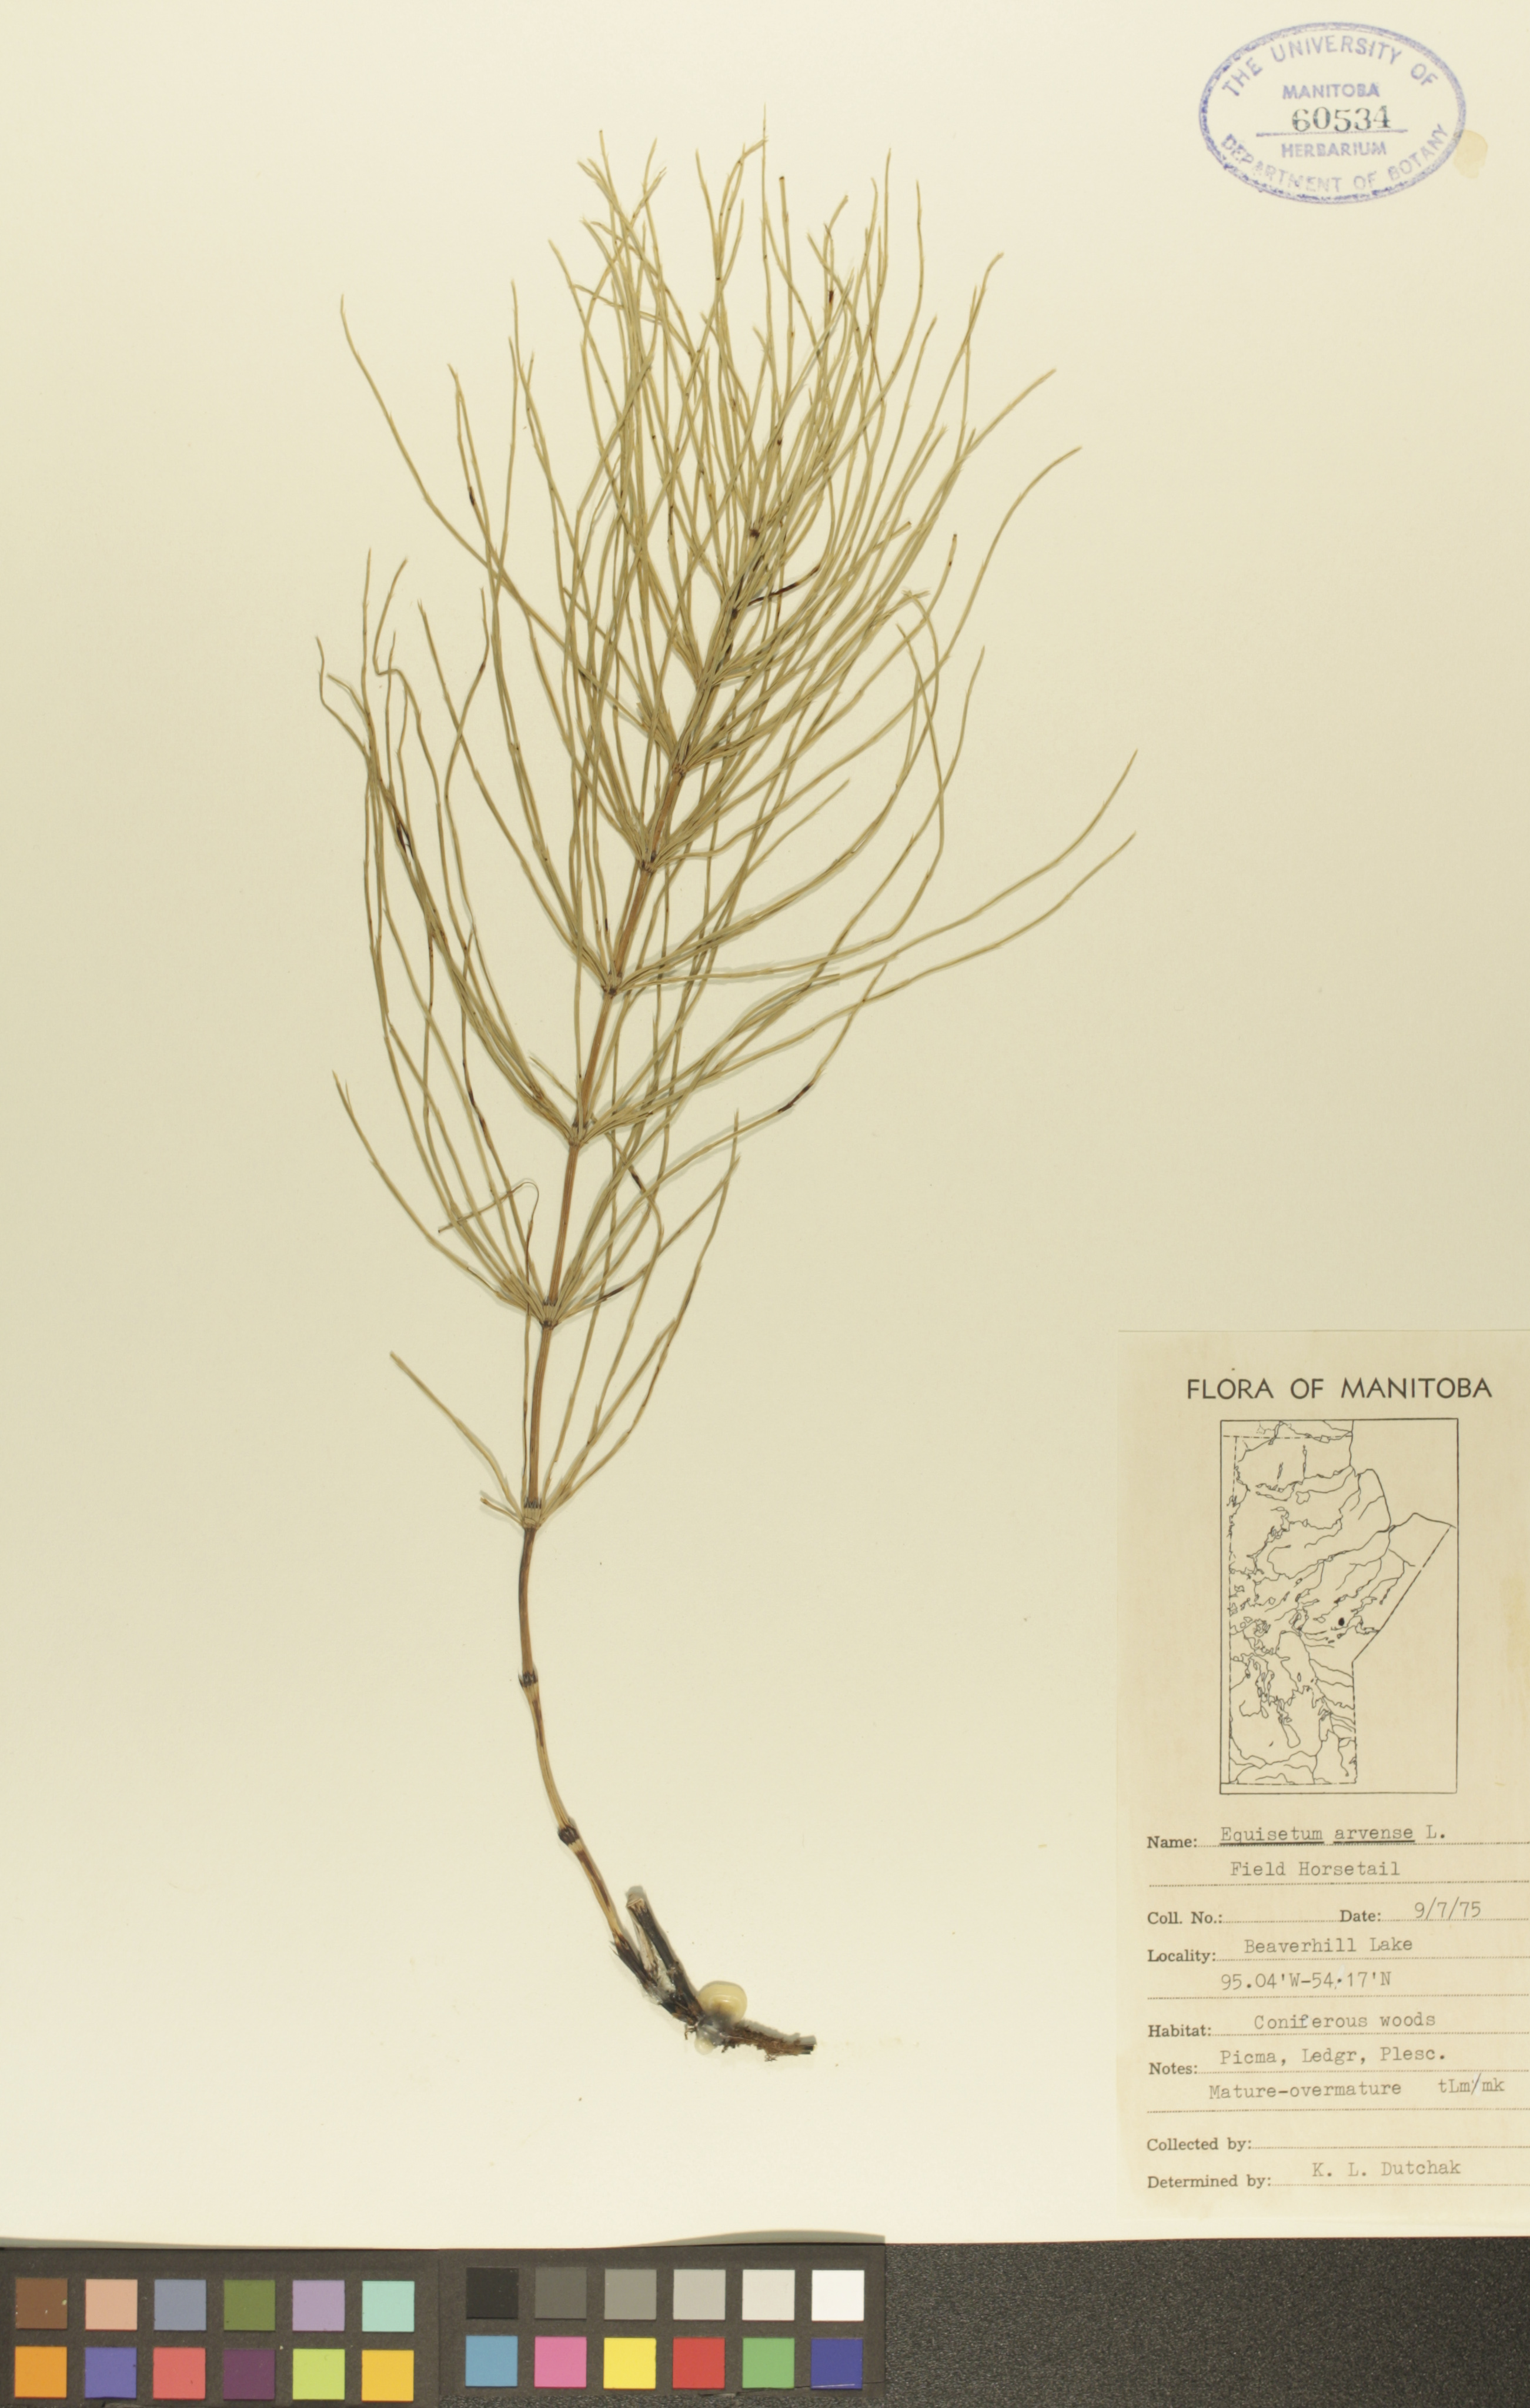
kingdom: Plantae
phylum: Tracheophyta
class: Polypodiopsida
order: Equisetales
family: Equisetaceae
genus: Equisetum
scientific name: Equisetum arvense
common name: Field horsetail
